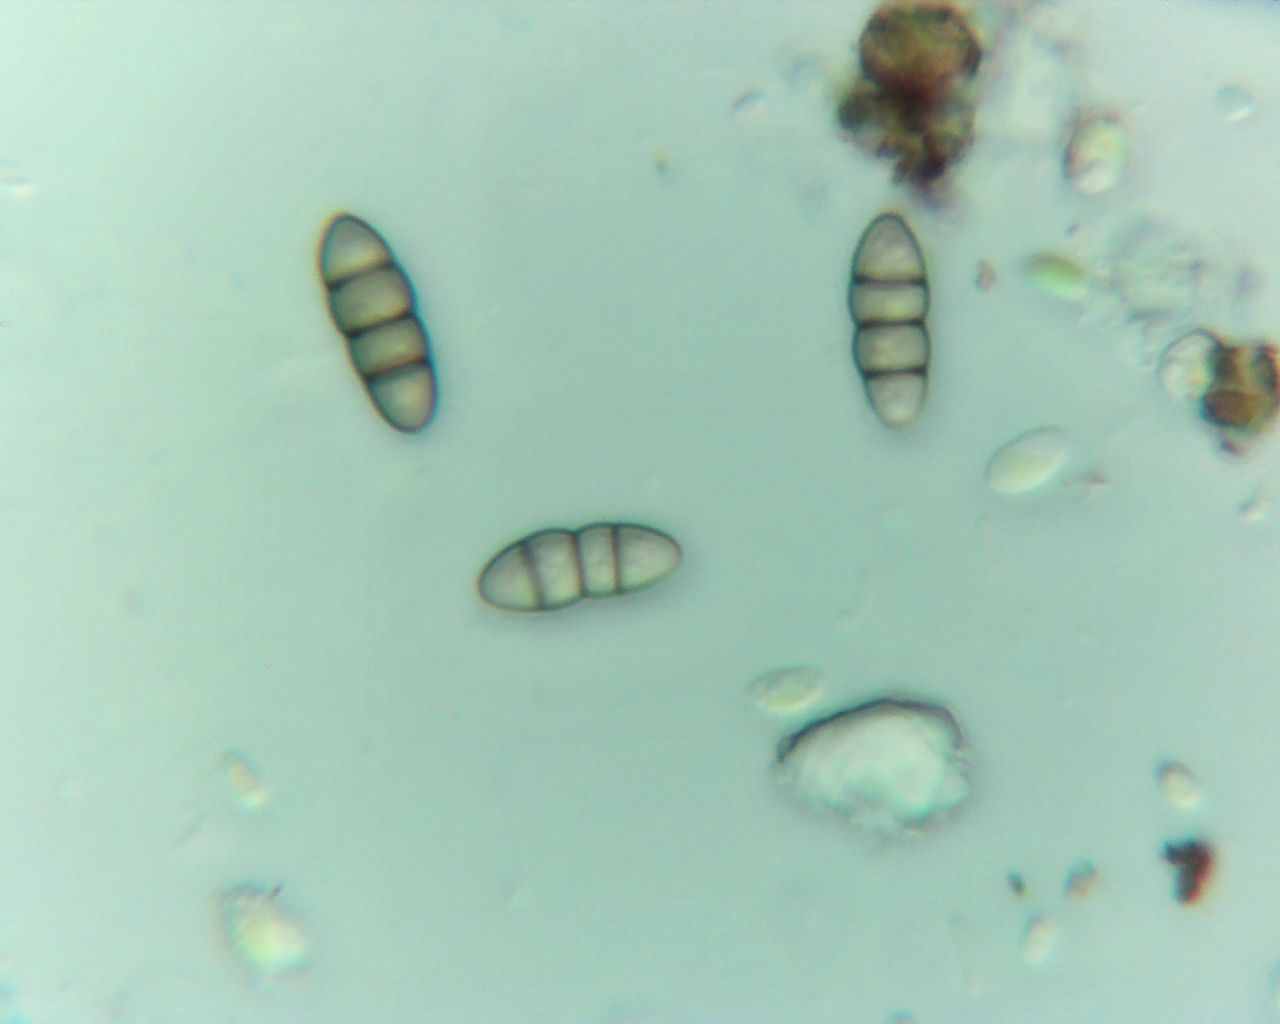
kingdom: Fungi
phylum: Ascomycota
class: Dothideomycetes
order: Pleosporales
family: Melanommataceae
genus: Melanomma
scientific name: Melanomma pulvis-pyrius
